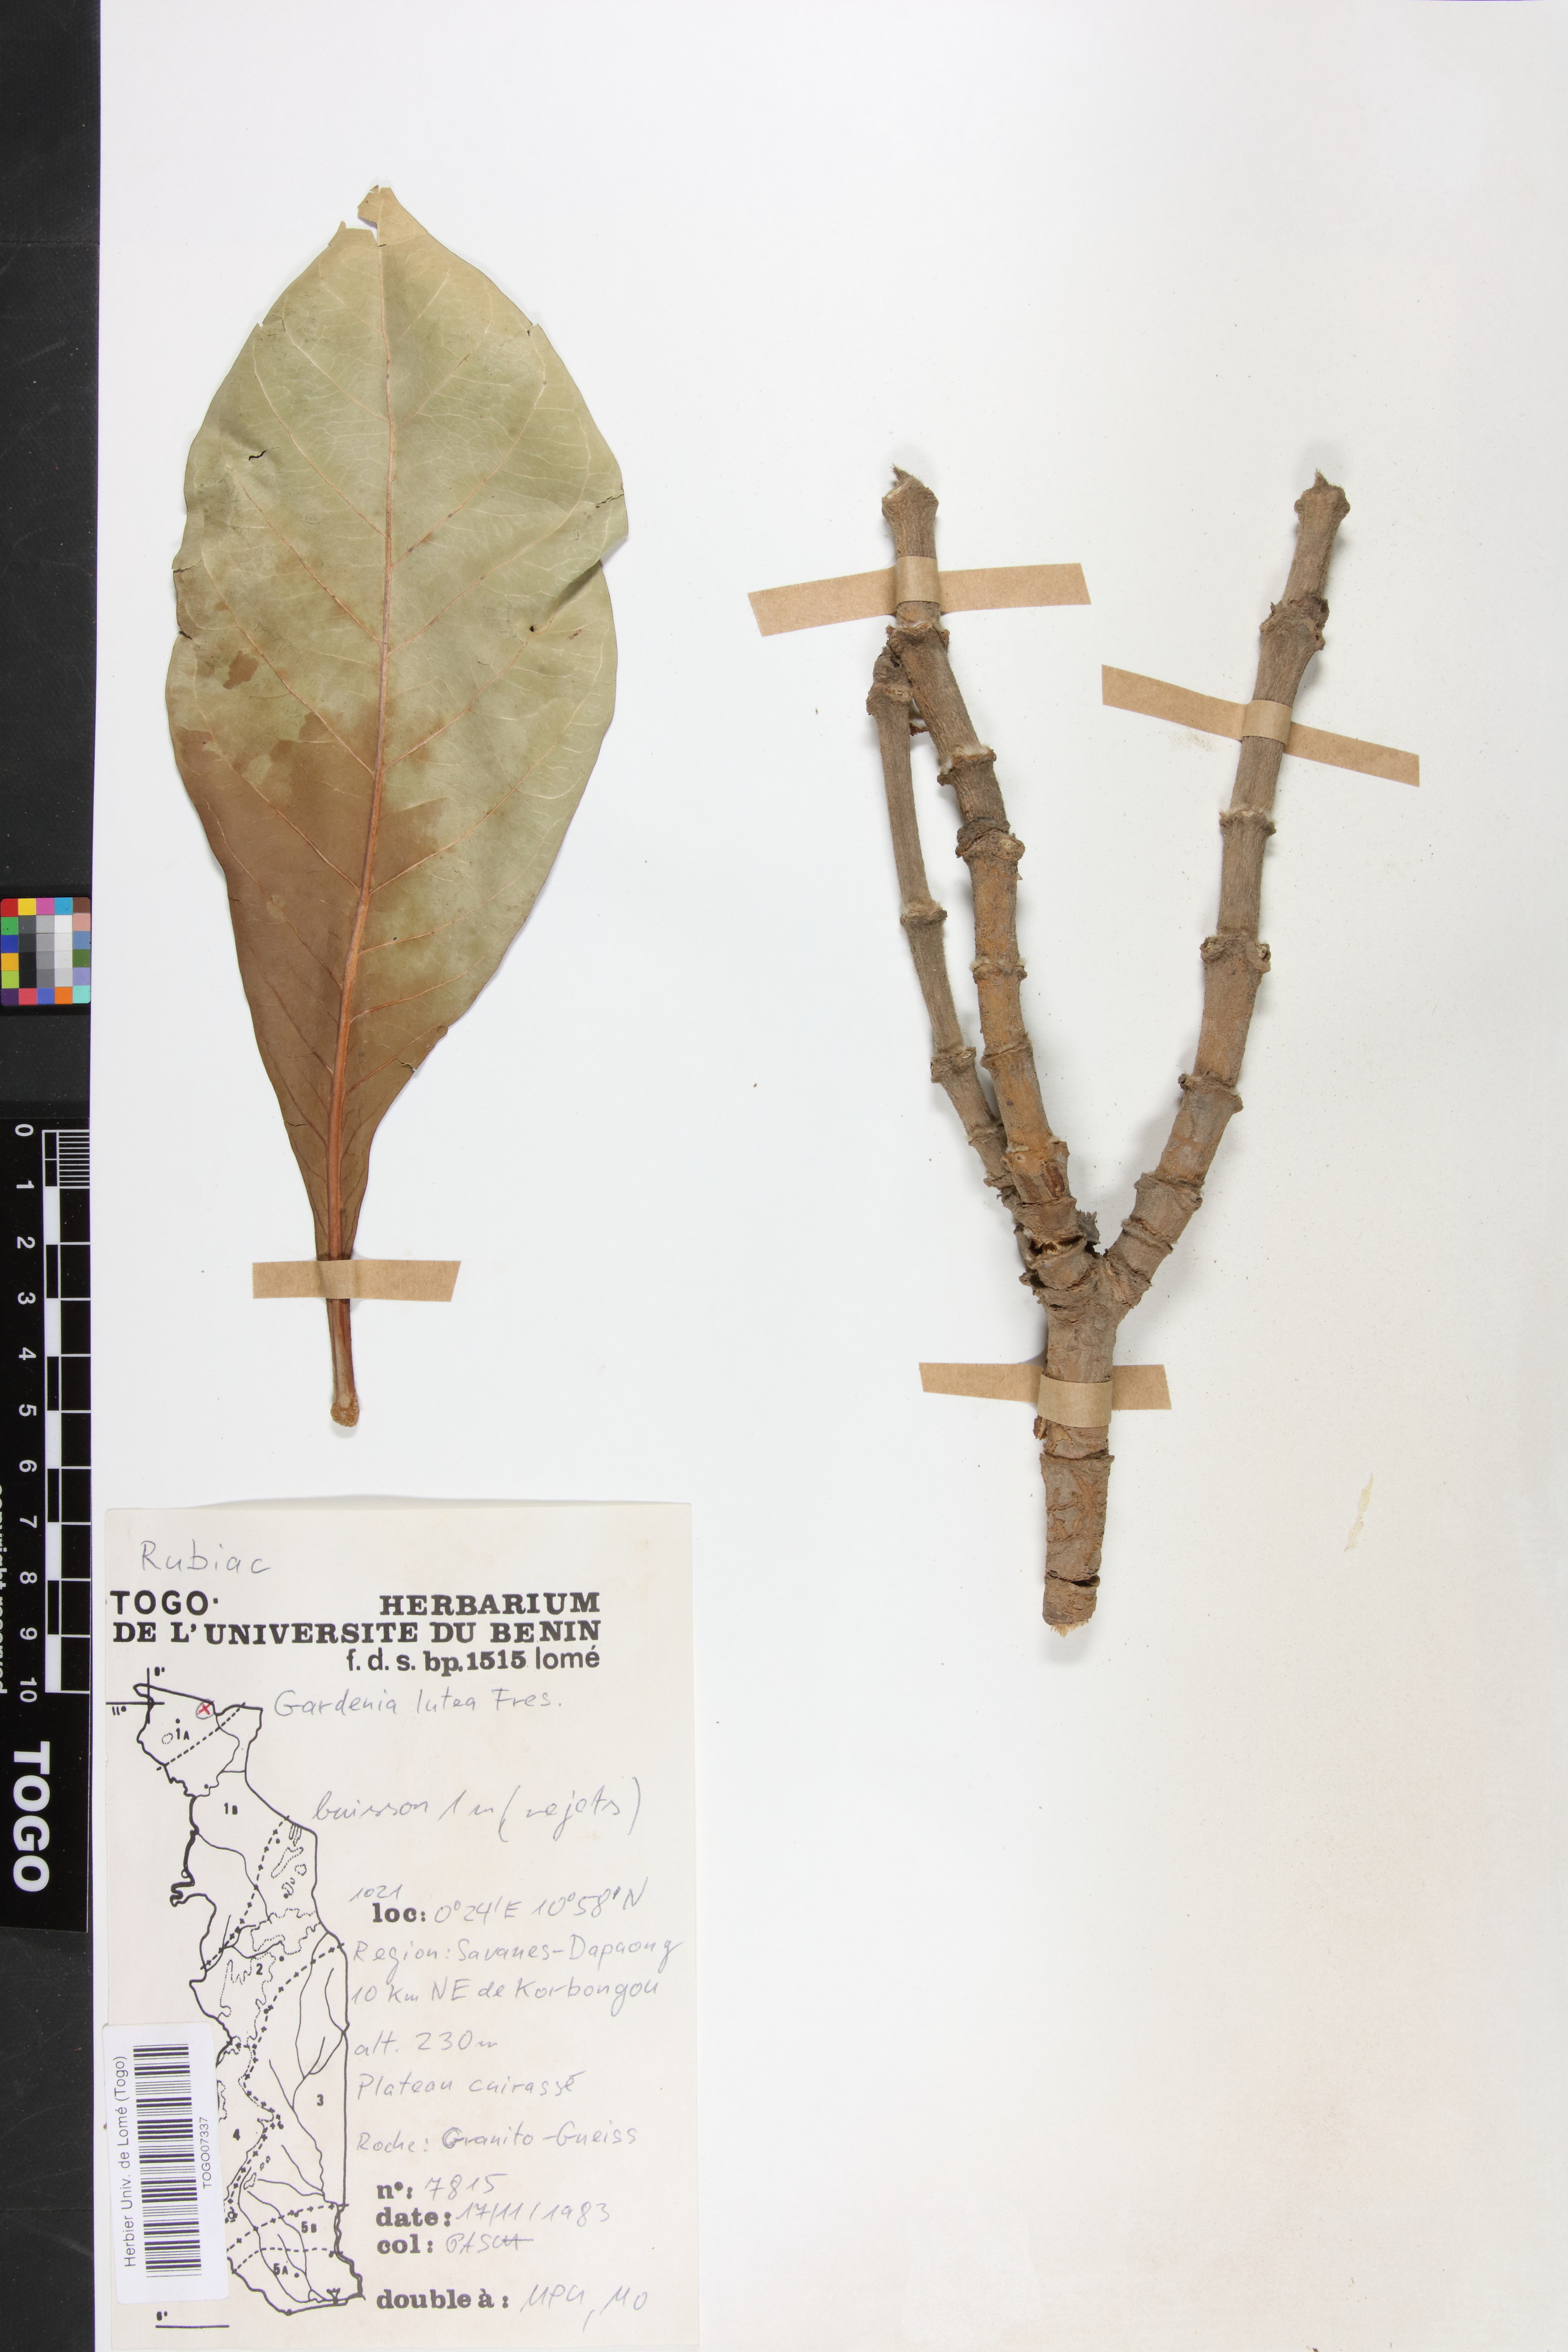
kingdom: Plantae
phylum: Tracheophyta
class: Magnoliopsida
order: Gentianales
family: Rubiaceae
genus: Gardenia
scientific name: Gardenia ternifolia
